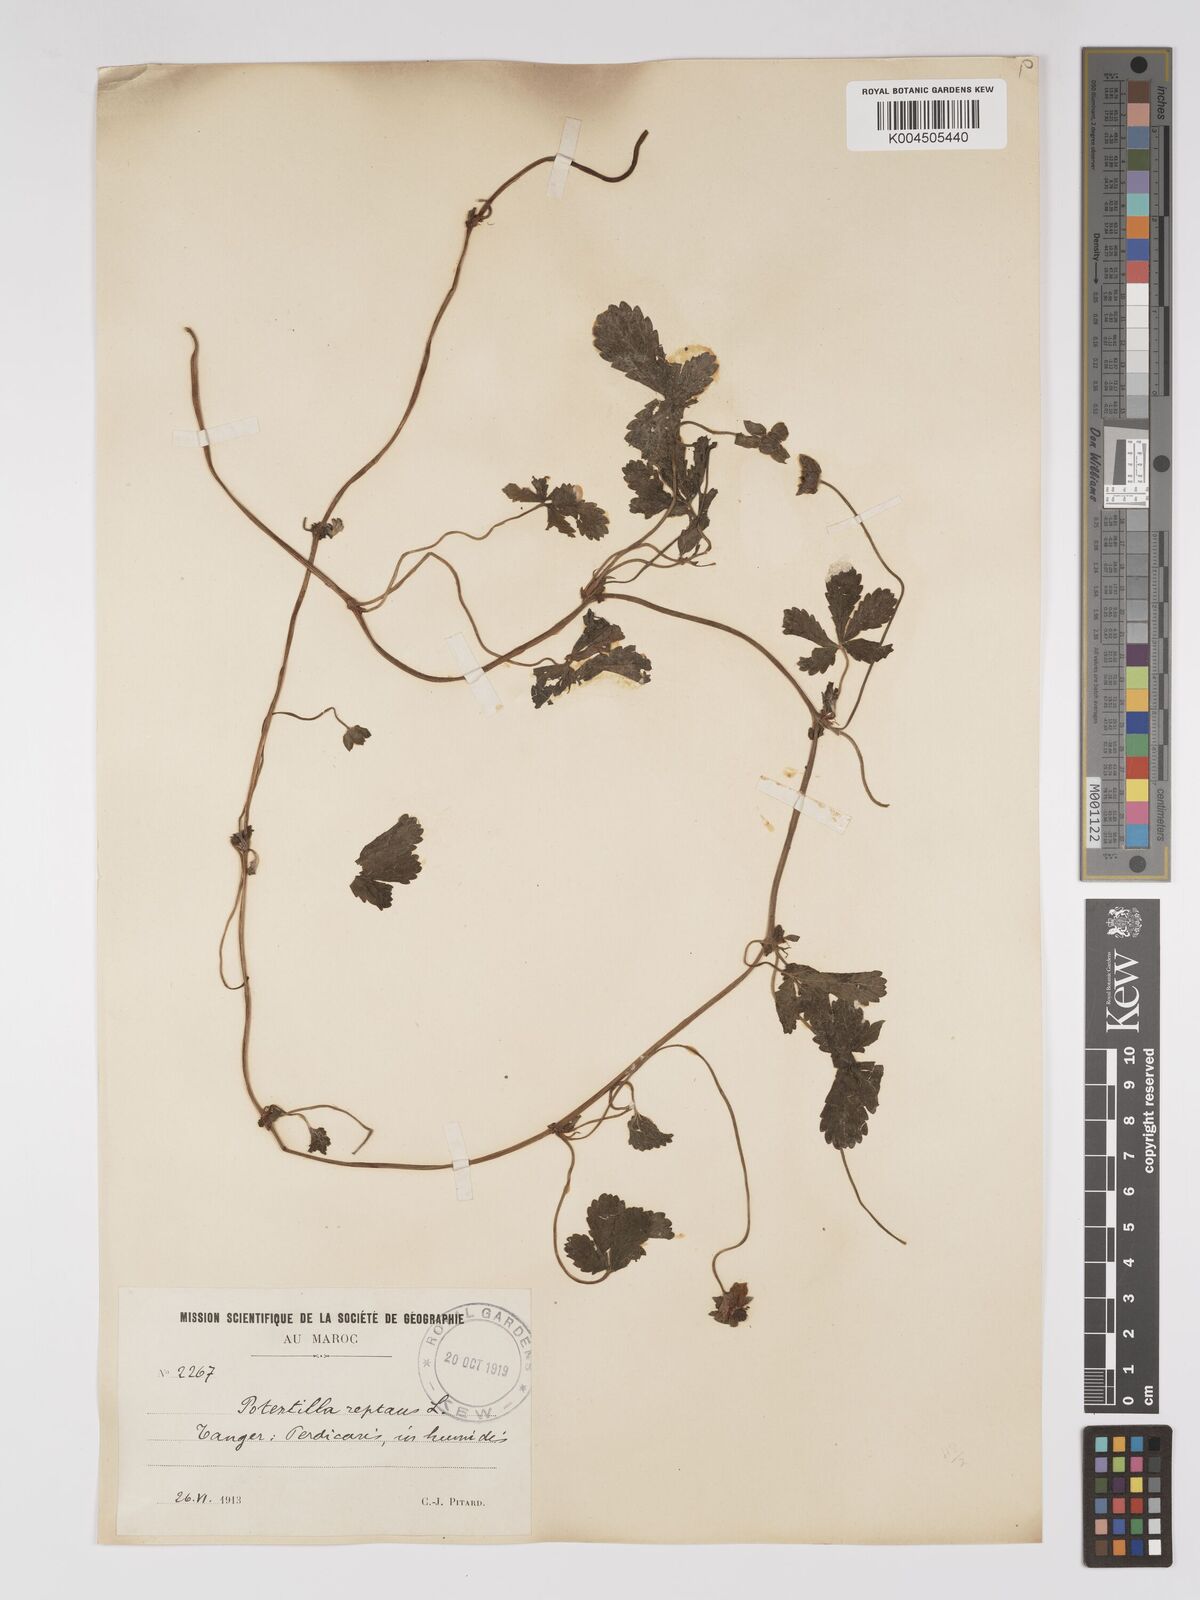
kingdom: Plantae
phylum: Tracheophyta
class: Magnoliopsida
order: Rosales
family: Rosaceae
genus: Potentilla
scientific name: Potentilla reptans
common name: Creeping cinquefoil
